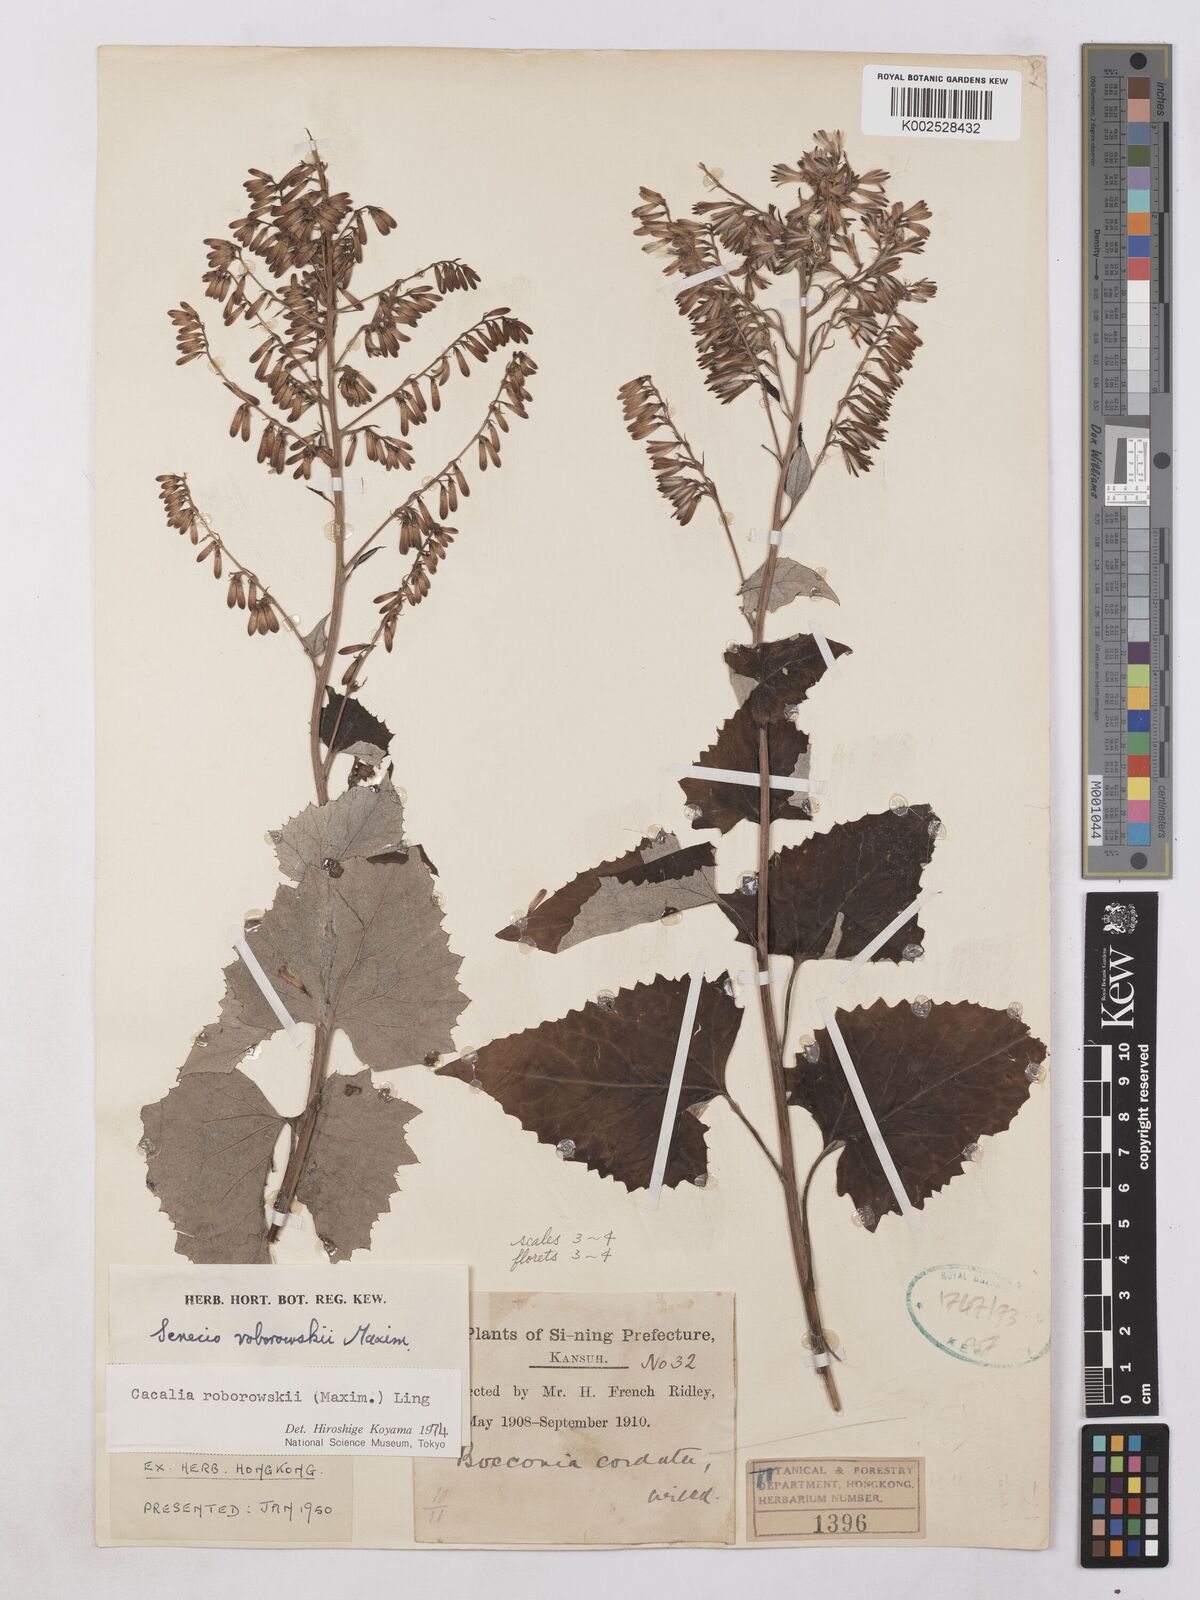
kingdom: Plantae
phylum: Tracheophyta
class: Magnoliopsida
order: Asterales
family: Asteraceae
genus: Parasenecio
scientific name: Parasenecio roborowskii
